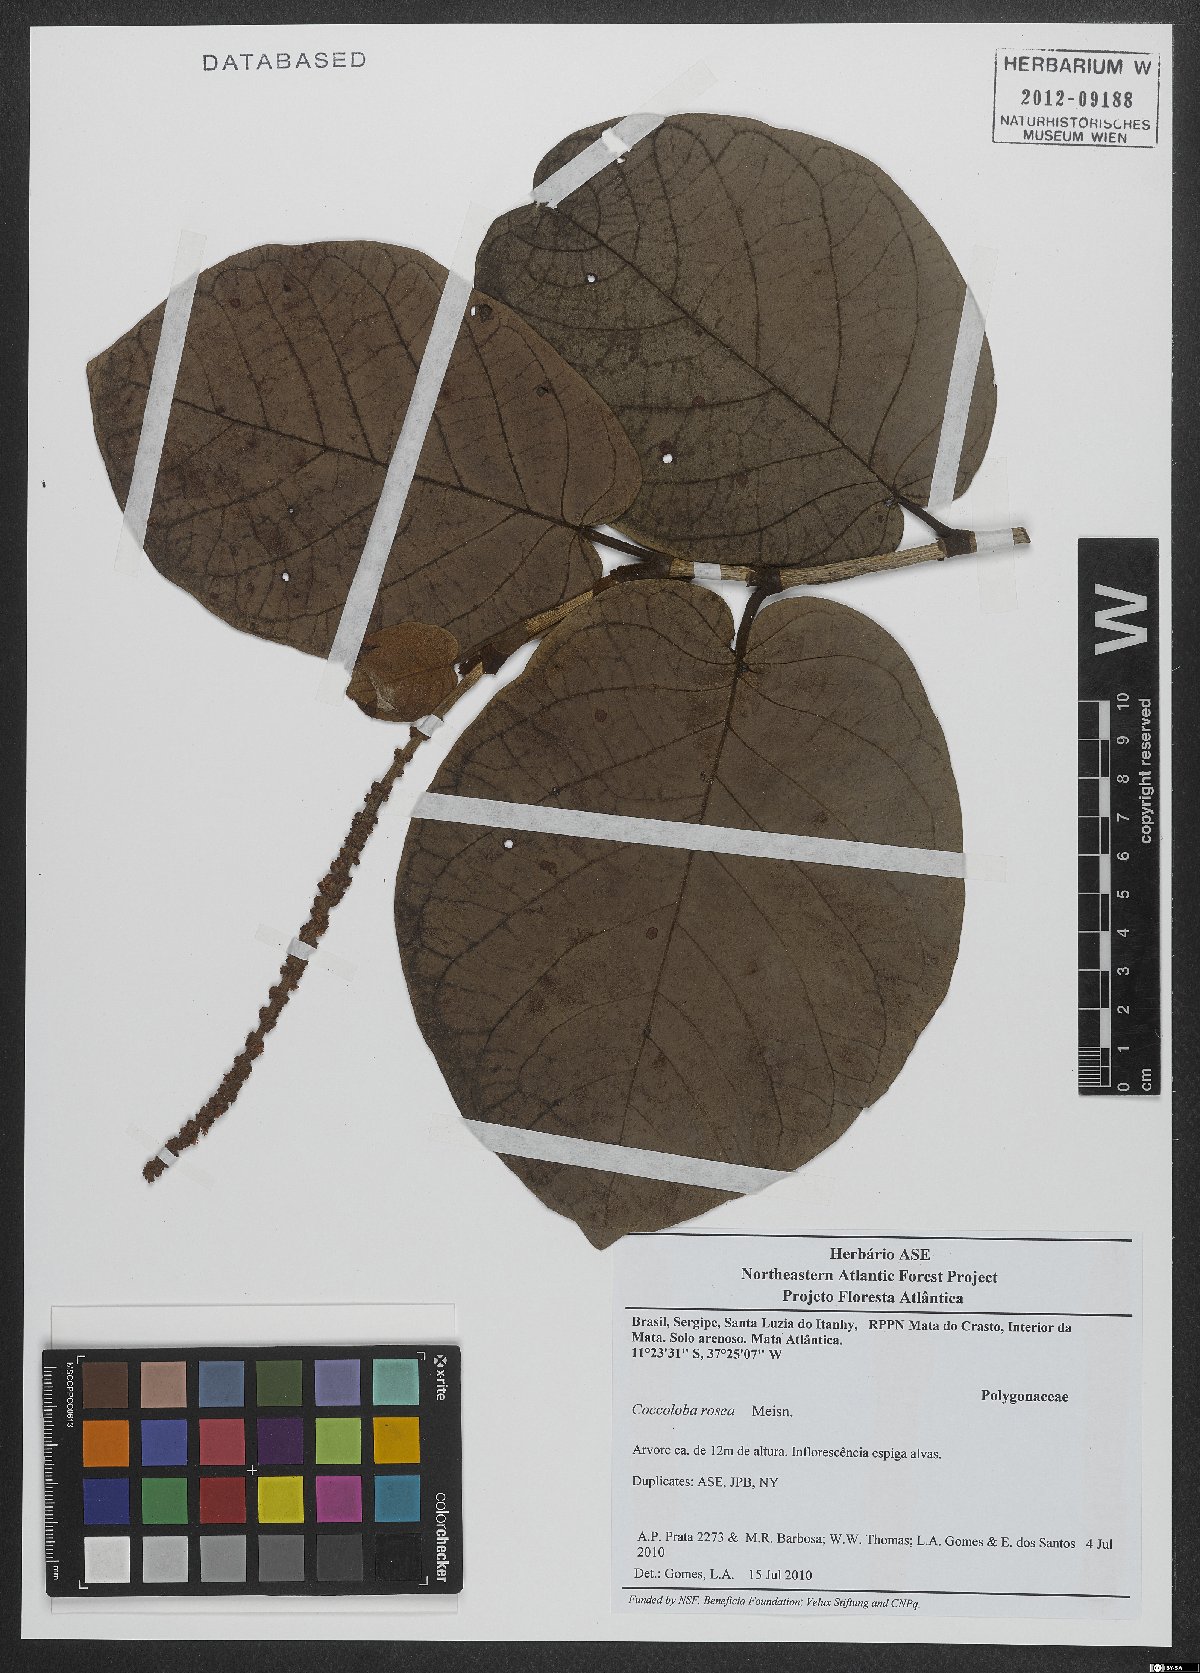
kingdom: Plantae
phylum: Tracheophyta
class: Magnoliopsida
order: Caryophyllales
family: Polygonaceae
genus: Coccoloba
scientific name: Coccoloba rosea
